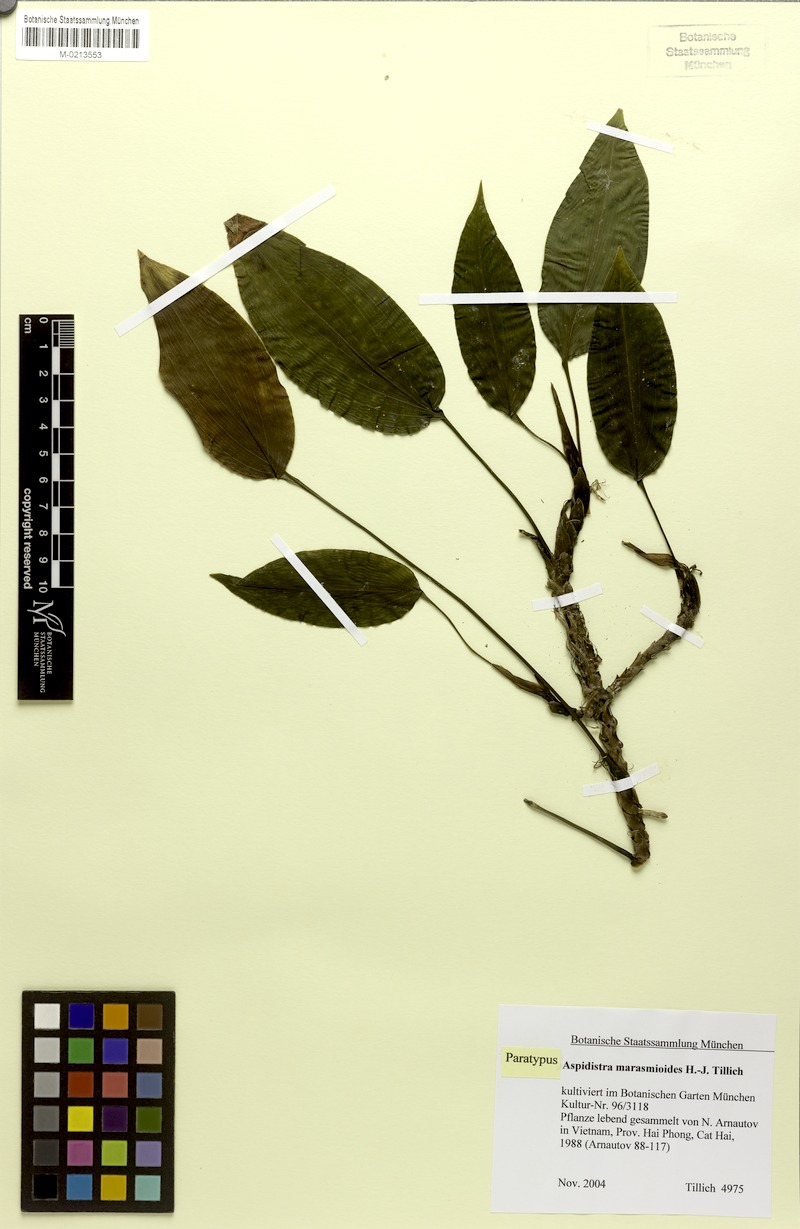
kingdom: Plantae
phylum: Tracheophyta
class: Liliopsida
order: Asparagales
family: Asparagaceae
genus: Aspidistra
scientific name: Aspidistra marasmioides
